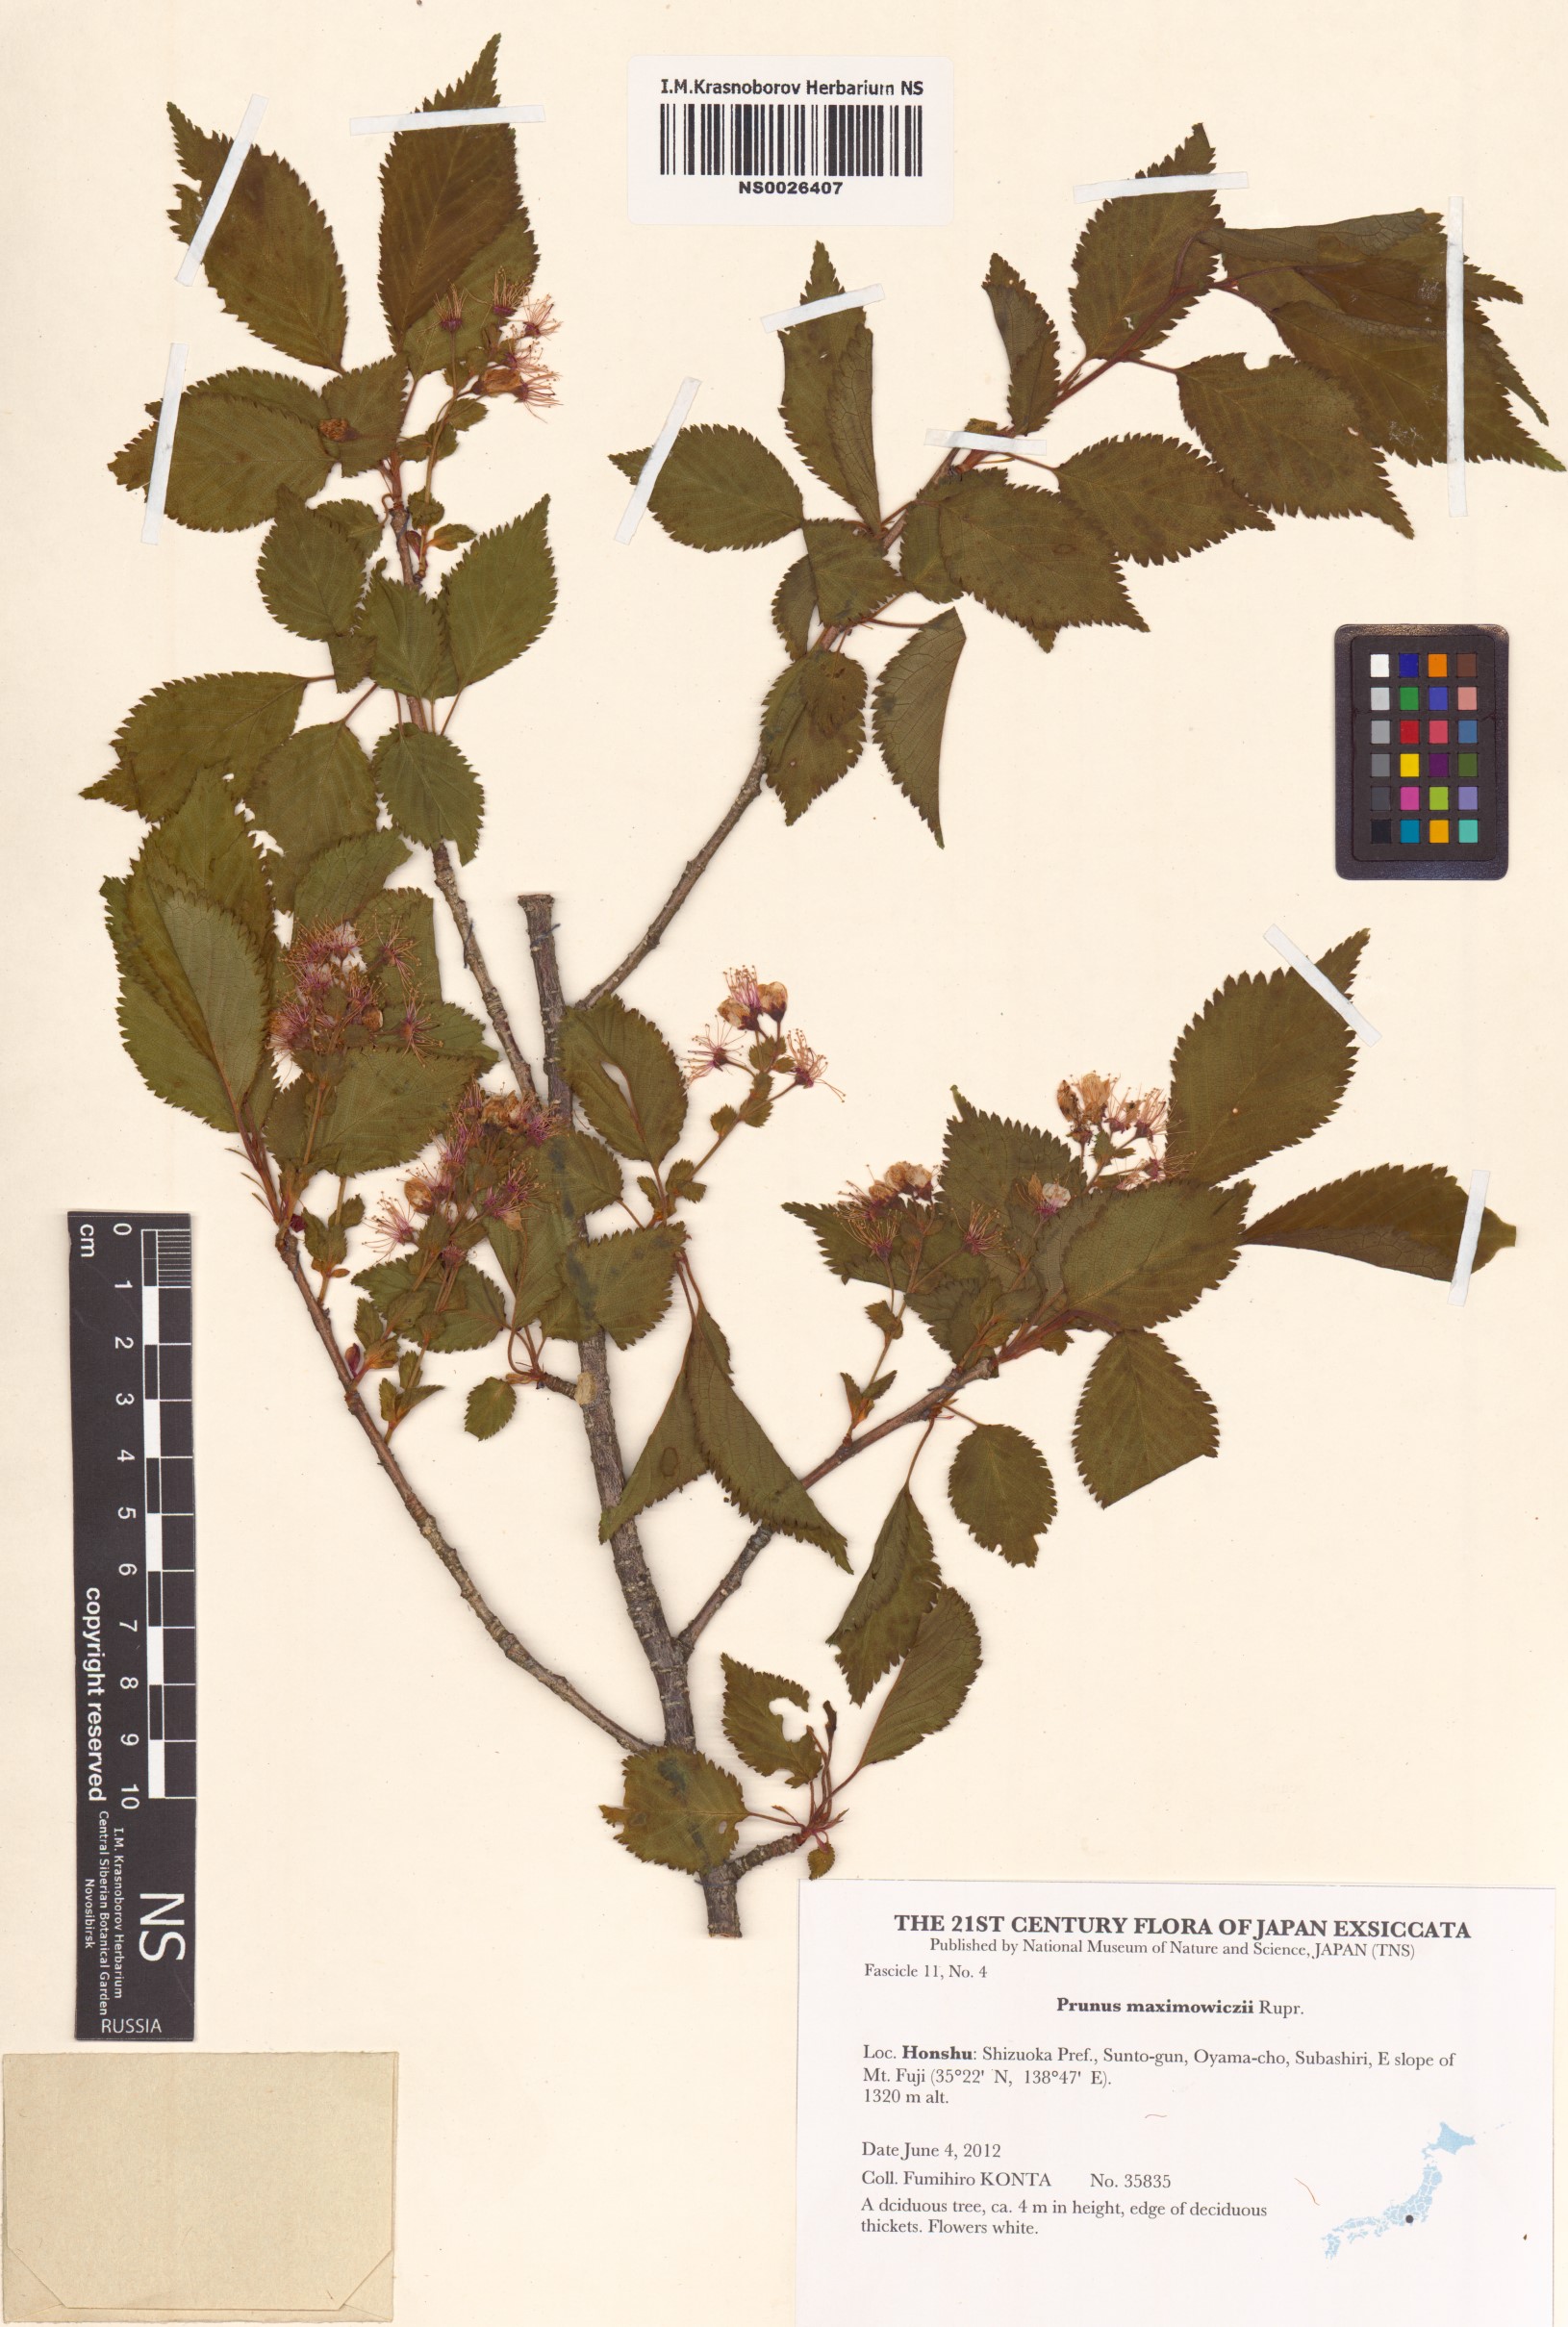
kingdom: Plantae
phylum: Tracheophyta
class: Magnoliopsida
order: Rosales
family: Rosaceae
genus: Prunus
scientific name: Prunus maximowiczii
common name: Korean cherry
